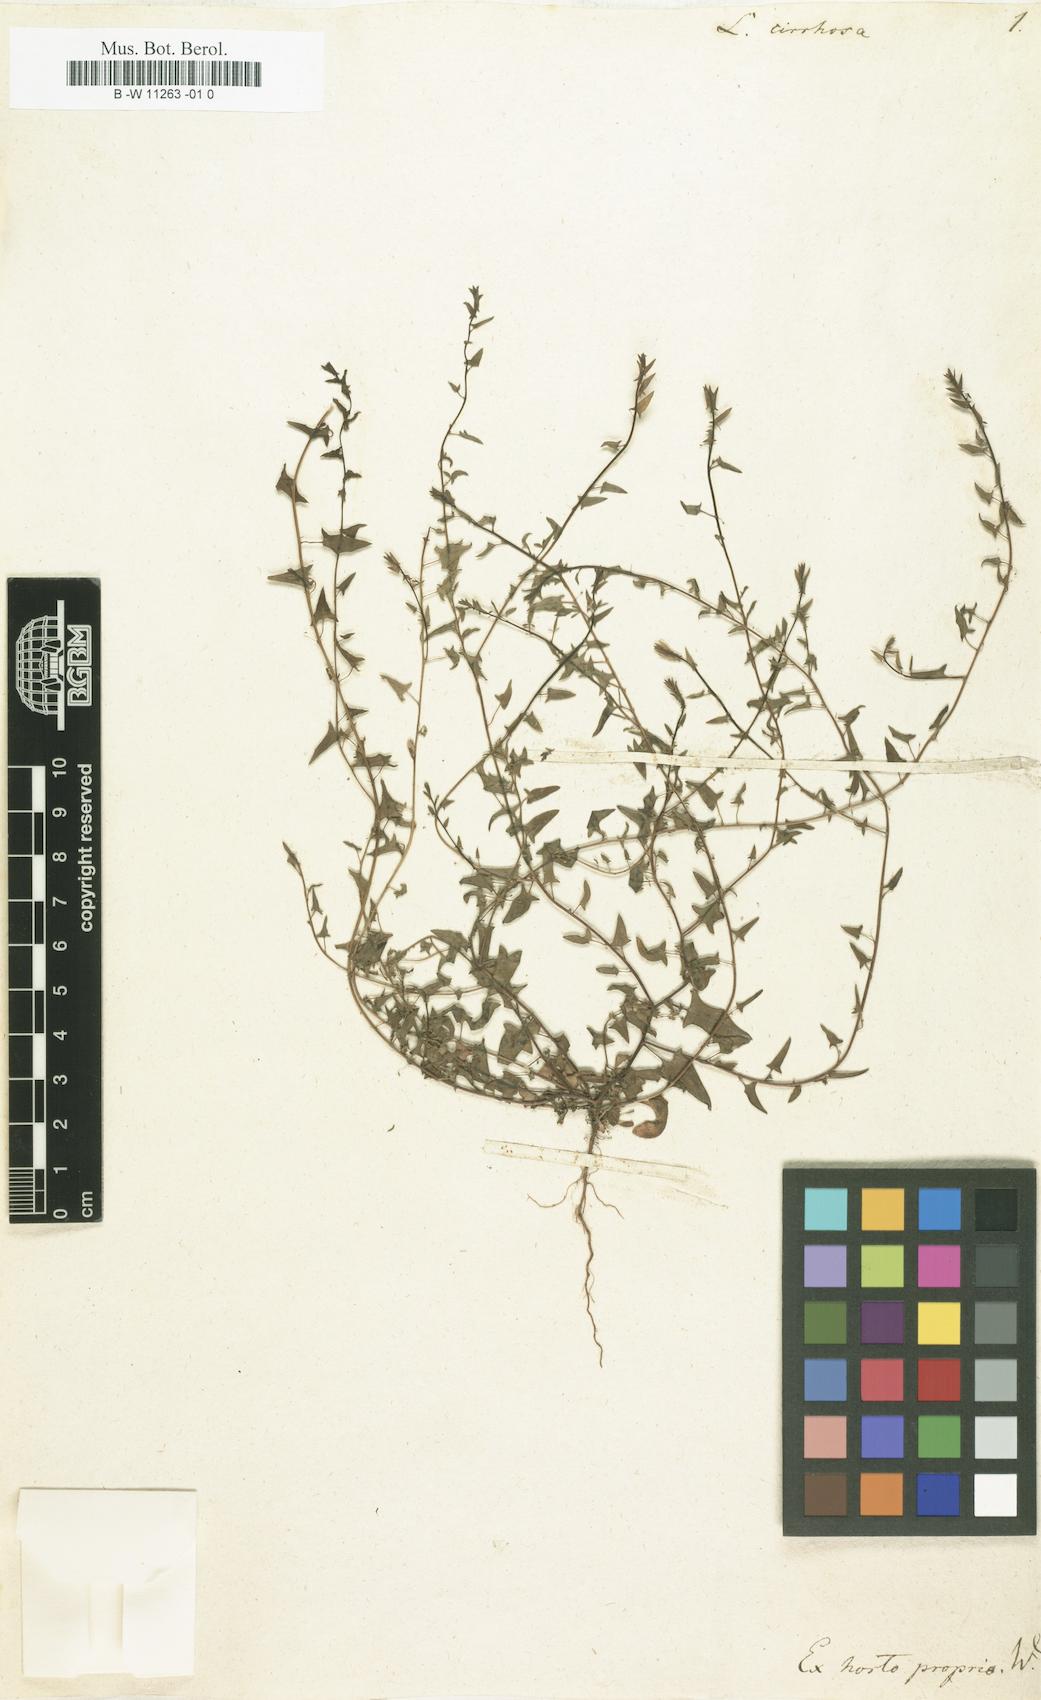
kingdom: Plantae
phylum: Tracheophyta
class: Magnoliopsida
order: Lamiales
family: Plantaginaceae
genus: Kickxia
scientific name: Kickxia cirrhosa
